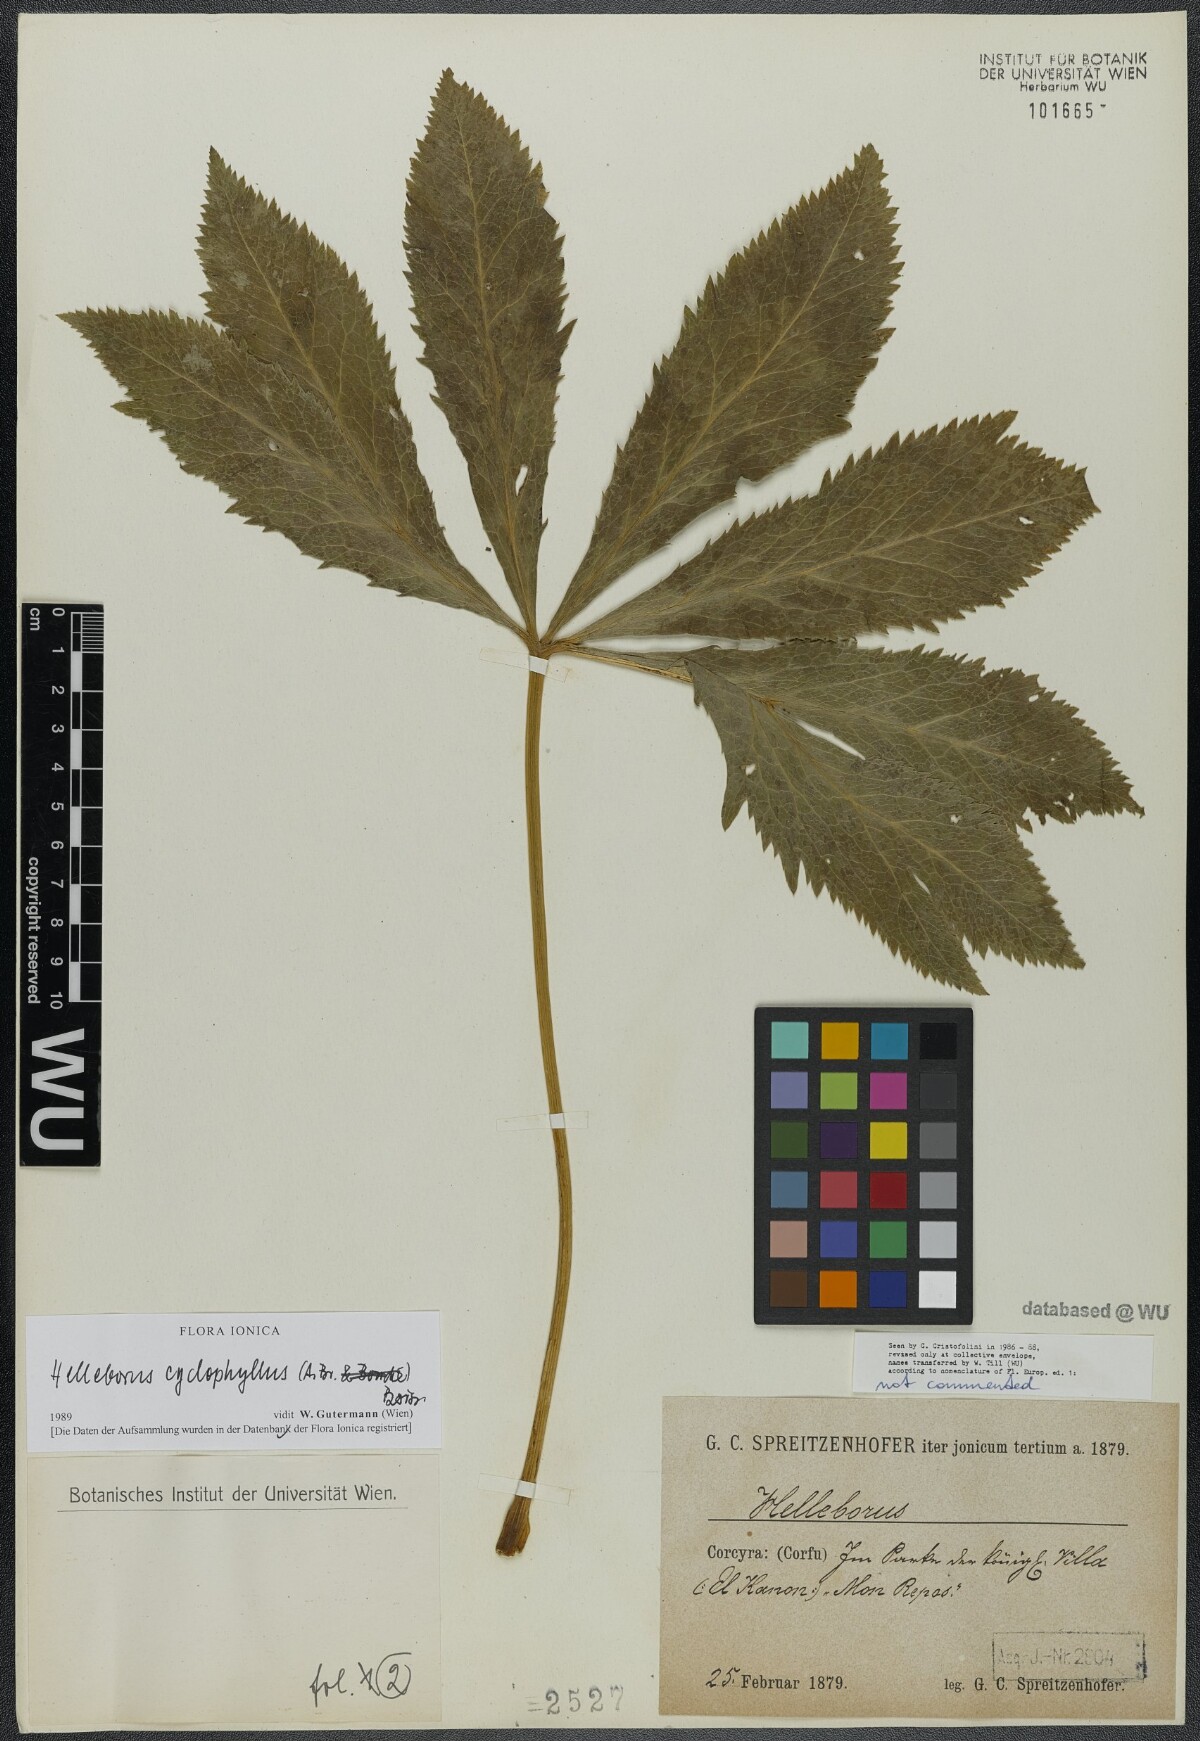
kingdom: Plantae
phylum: Tracheophyta
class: Magnoliopsida
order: Ranunculales
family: Ranunculaceae
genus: Helleborus
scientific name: Helleborus odorus
